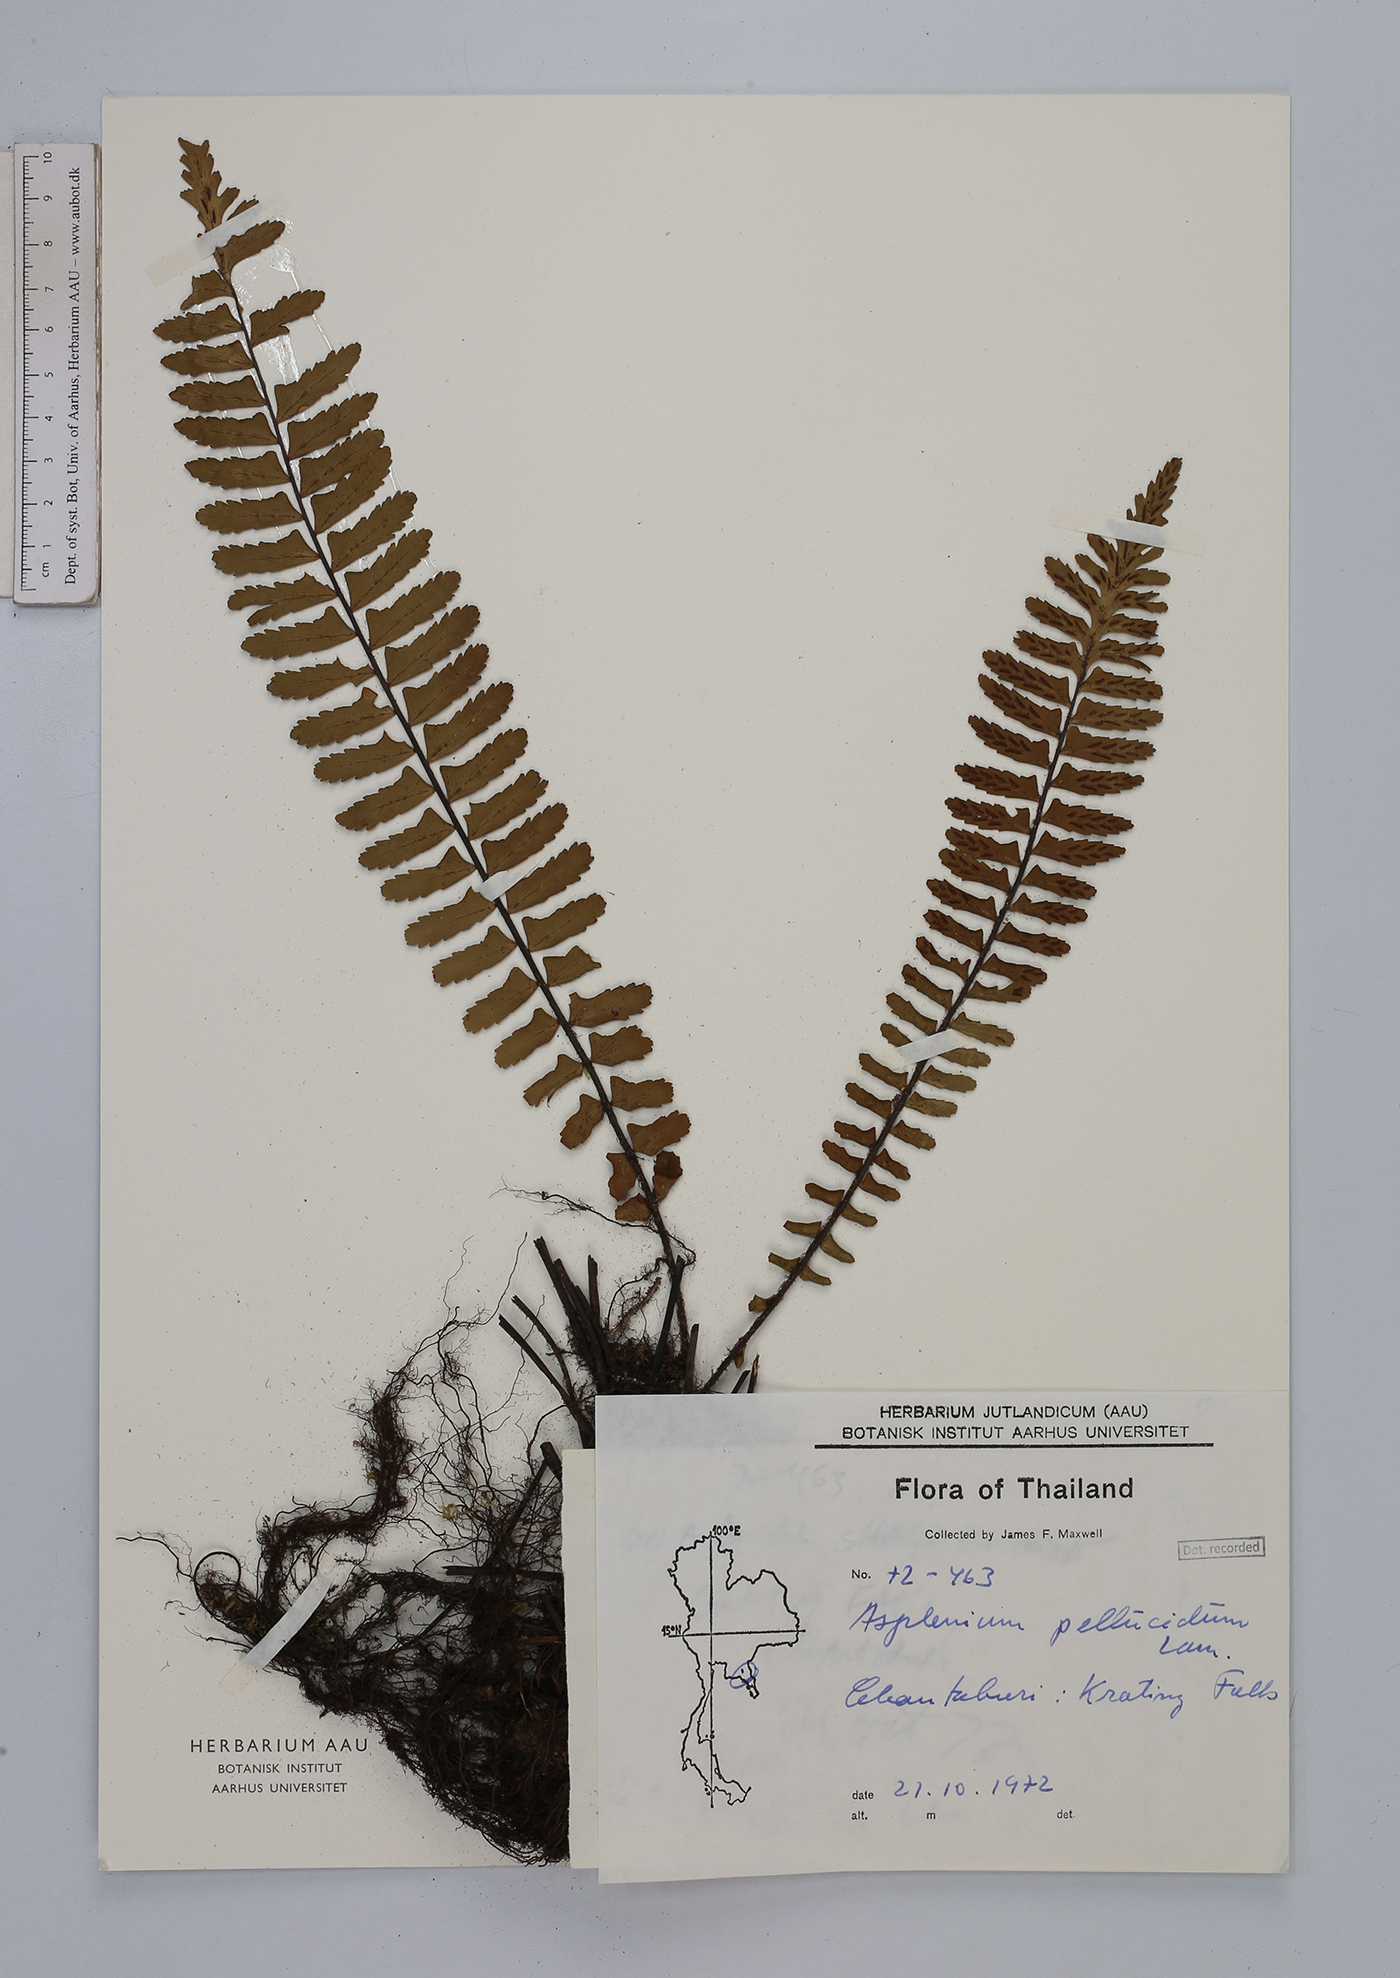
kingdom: Plantae
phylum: Tracheophyta
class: Polypodiopsida
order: Polypodiales
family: Aspleniaceae
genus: Asplenium
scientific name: Asplenium pellucidum
